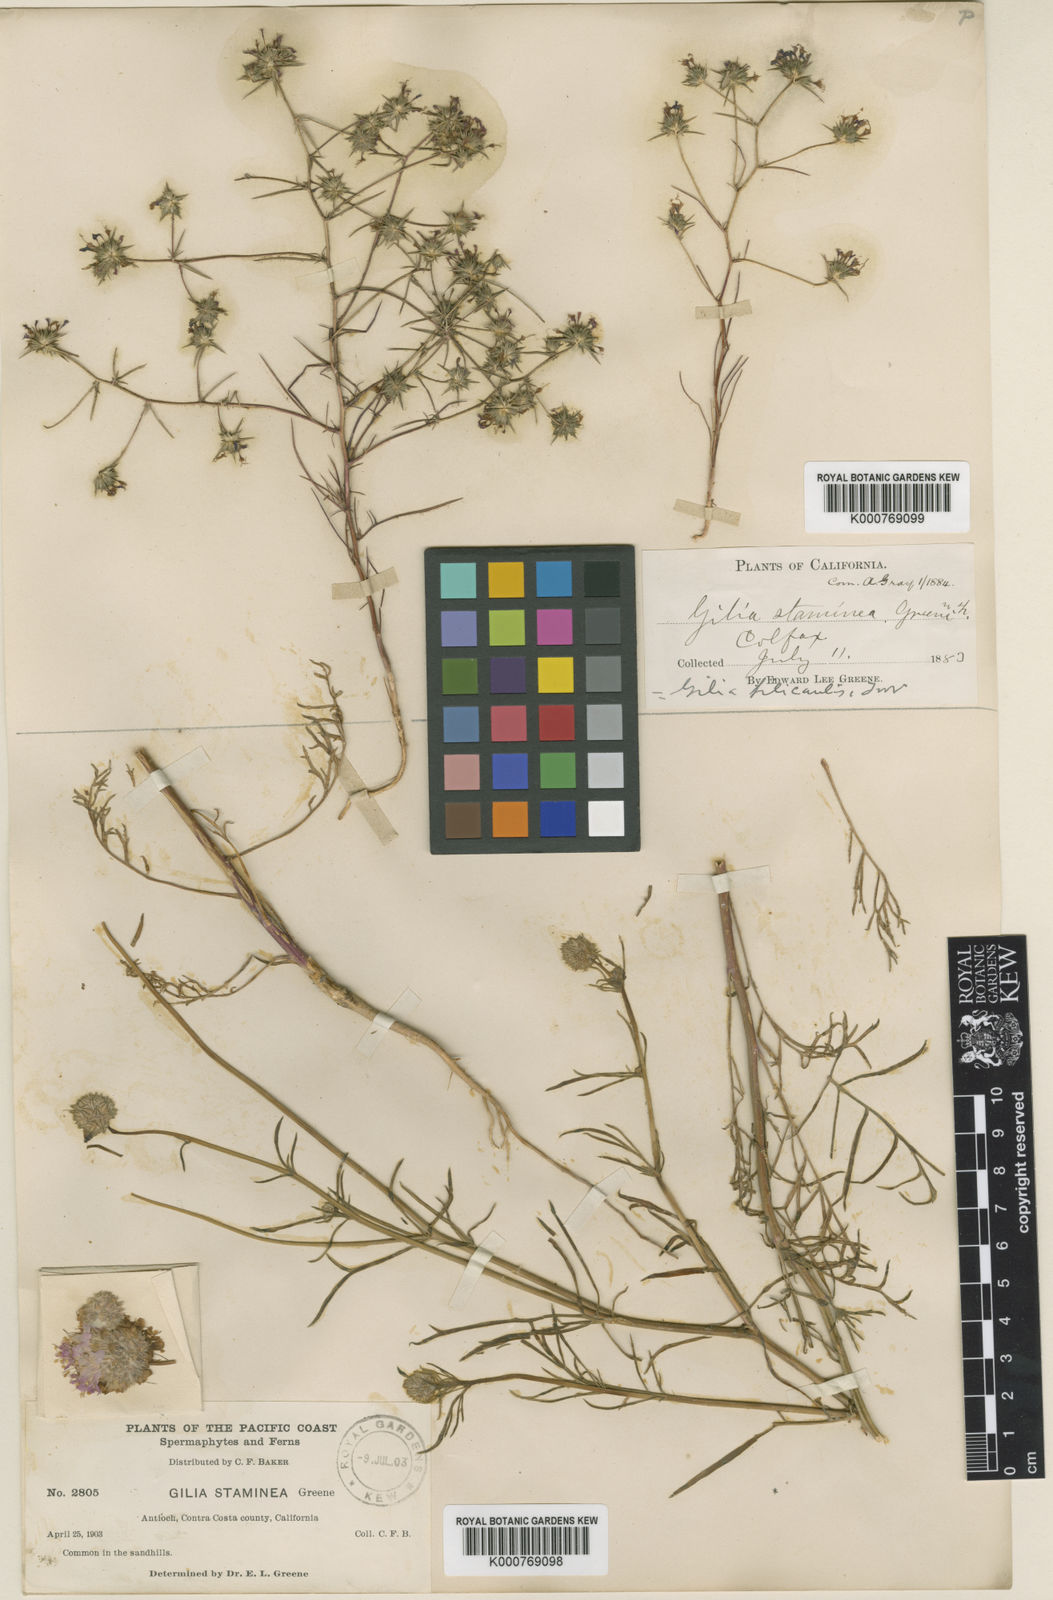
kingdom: Plantae
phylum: Tracheophyta
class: Magnoliopsida
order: Ericales
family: Polemoniaceae
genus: Gilia
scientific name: Gilia capitata
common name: Bluehead gilia
